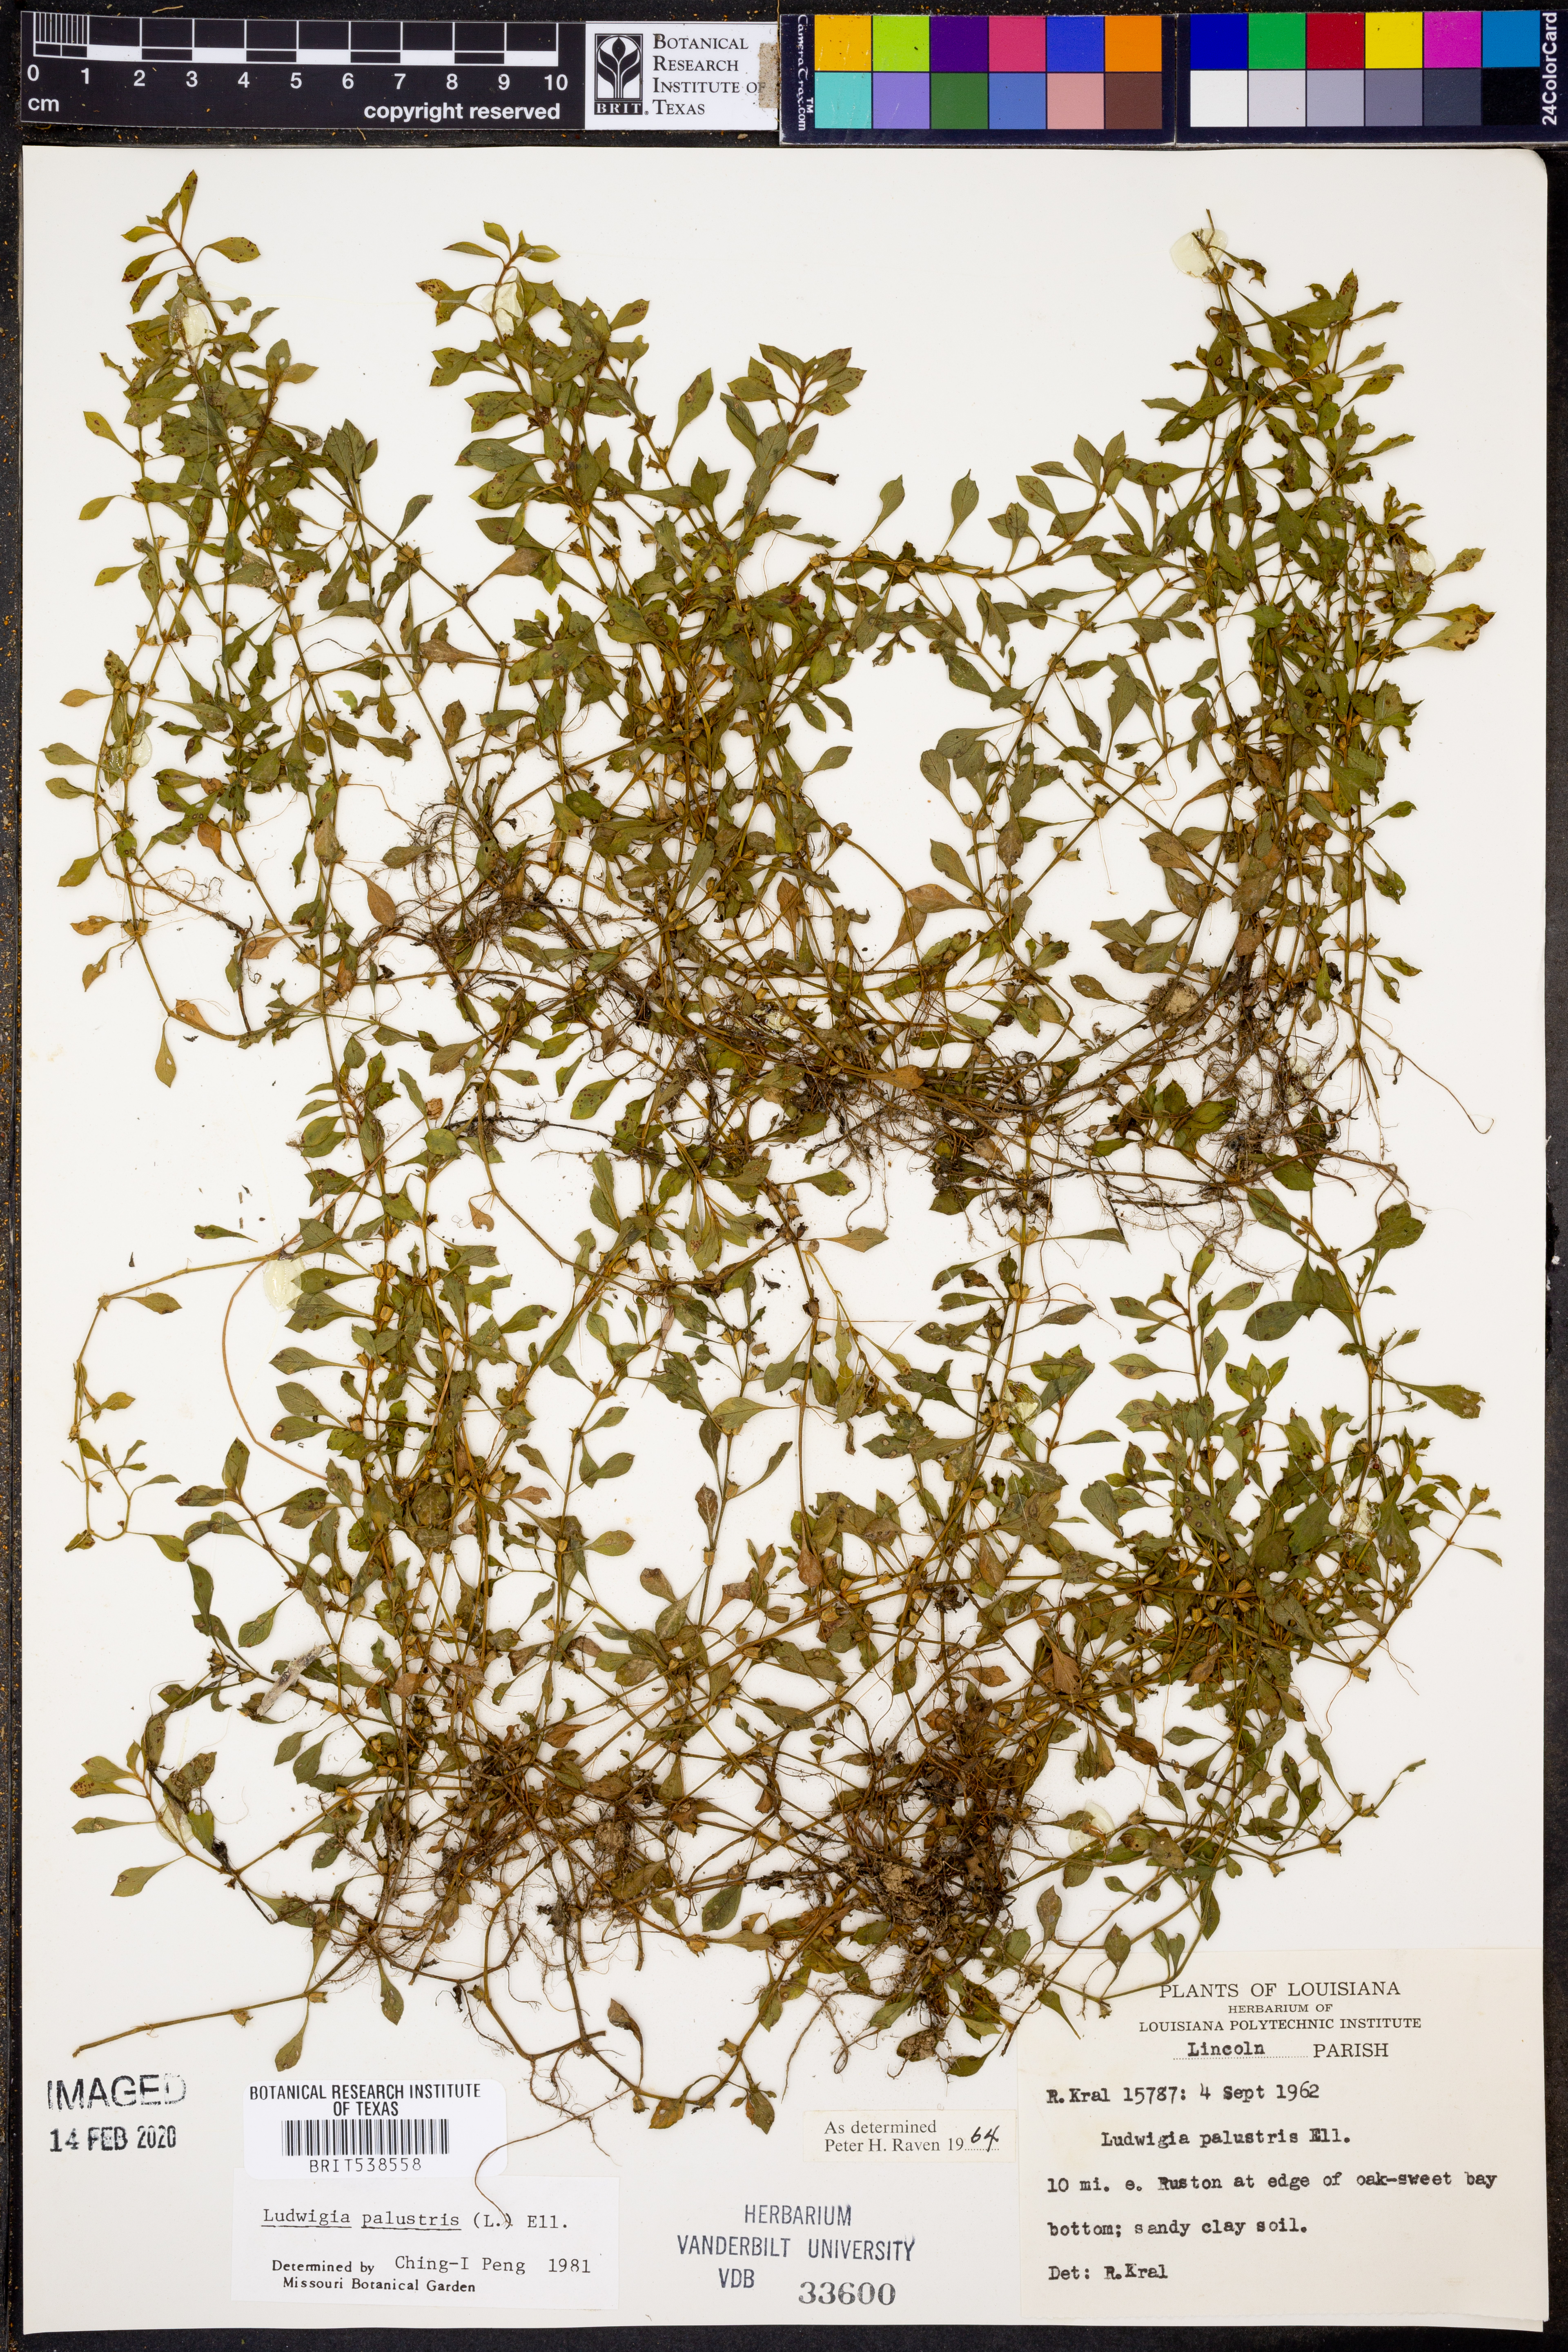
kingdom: Plantae
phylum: Tracheophyta
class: Magnoliopsida
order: Myrtales
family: Onagraceae
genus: Ludwigia
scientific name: Ludwigia palustris
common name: Hampshire-purslane
